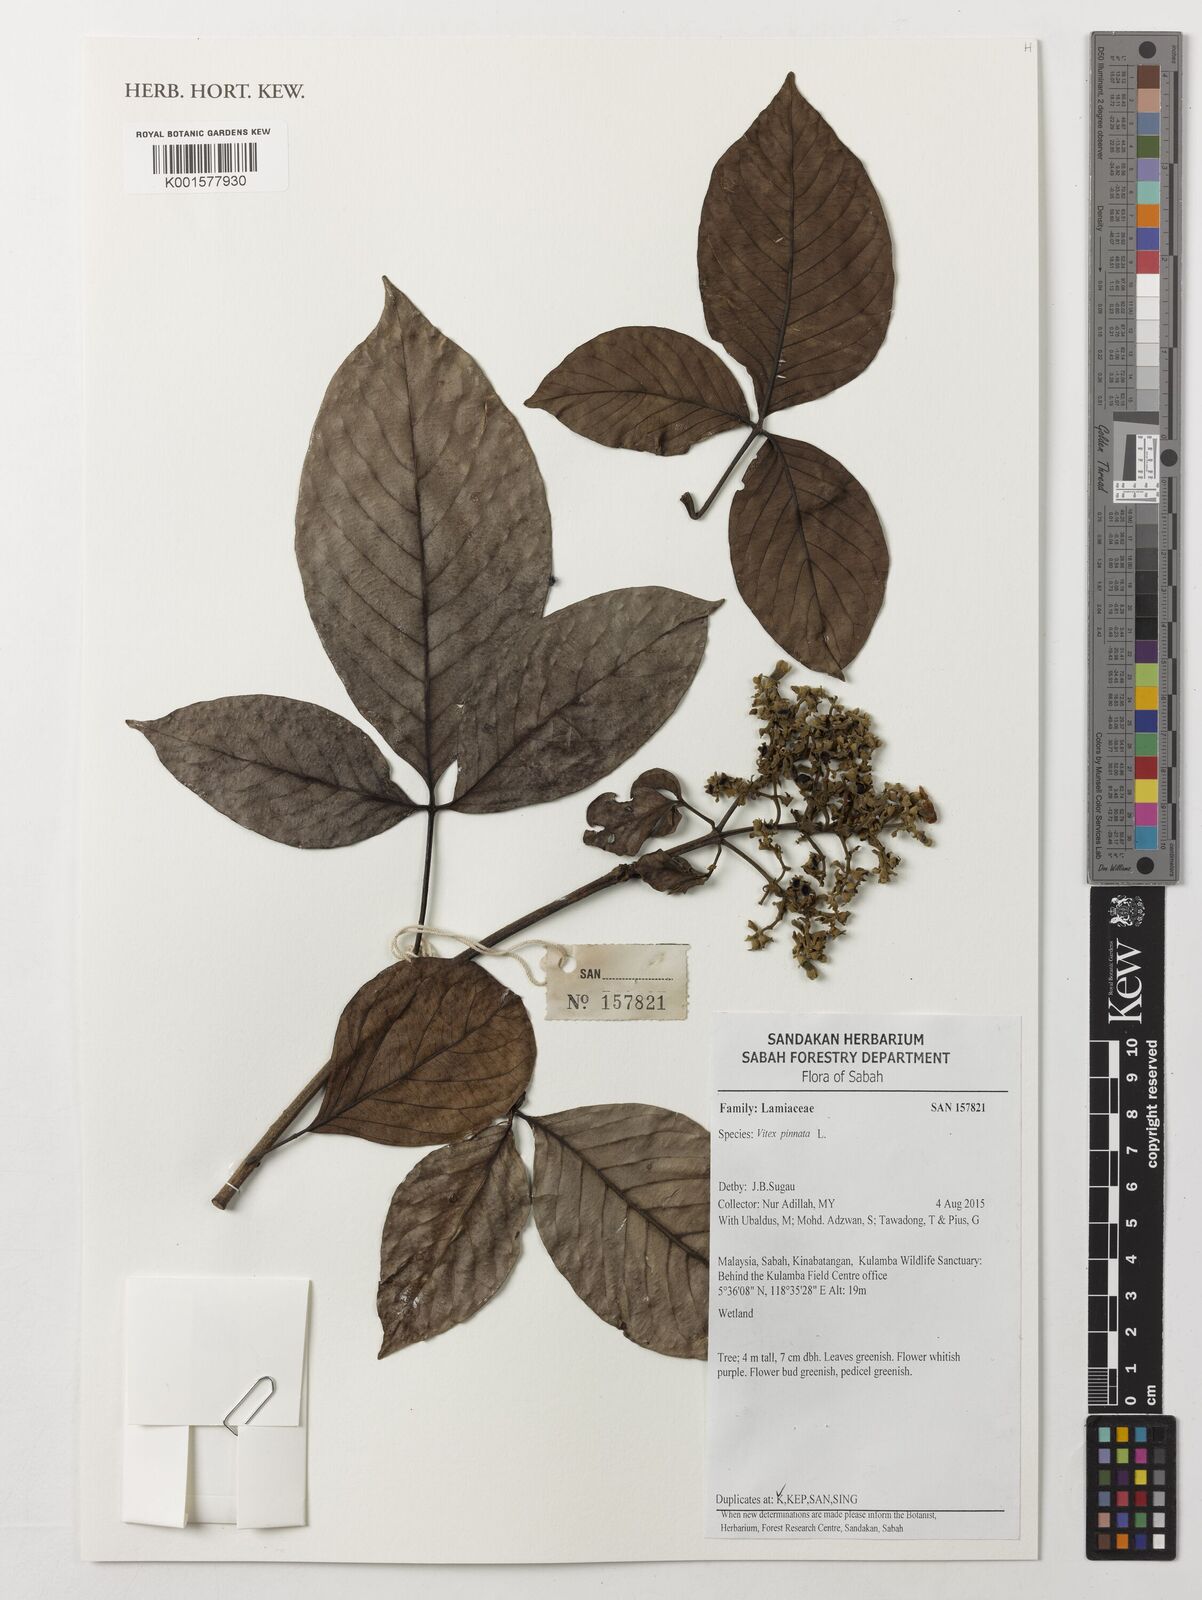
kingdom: Plantae
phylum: Tracheophyta
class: Magnoliopsida
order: Lamiales
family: Lamiaceae
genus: Vitex
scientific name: Vitex pinnata
